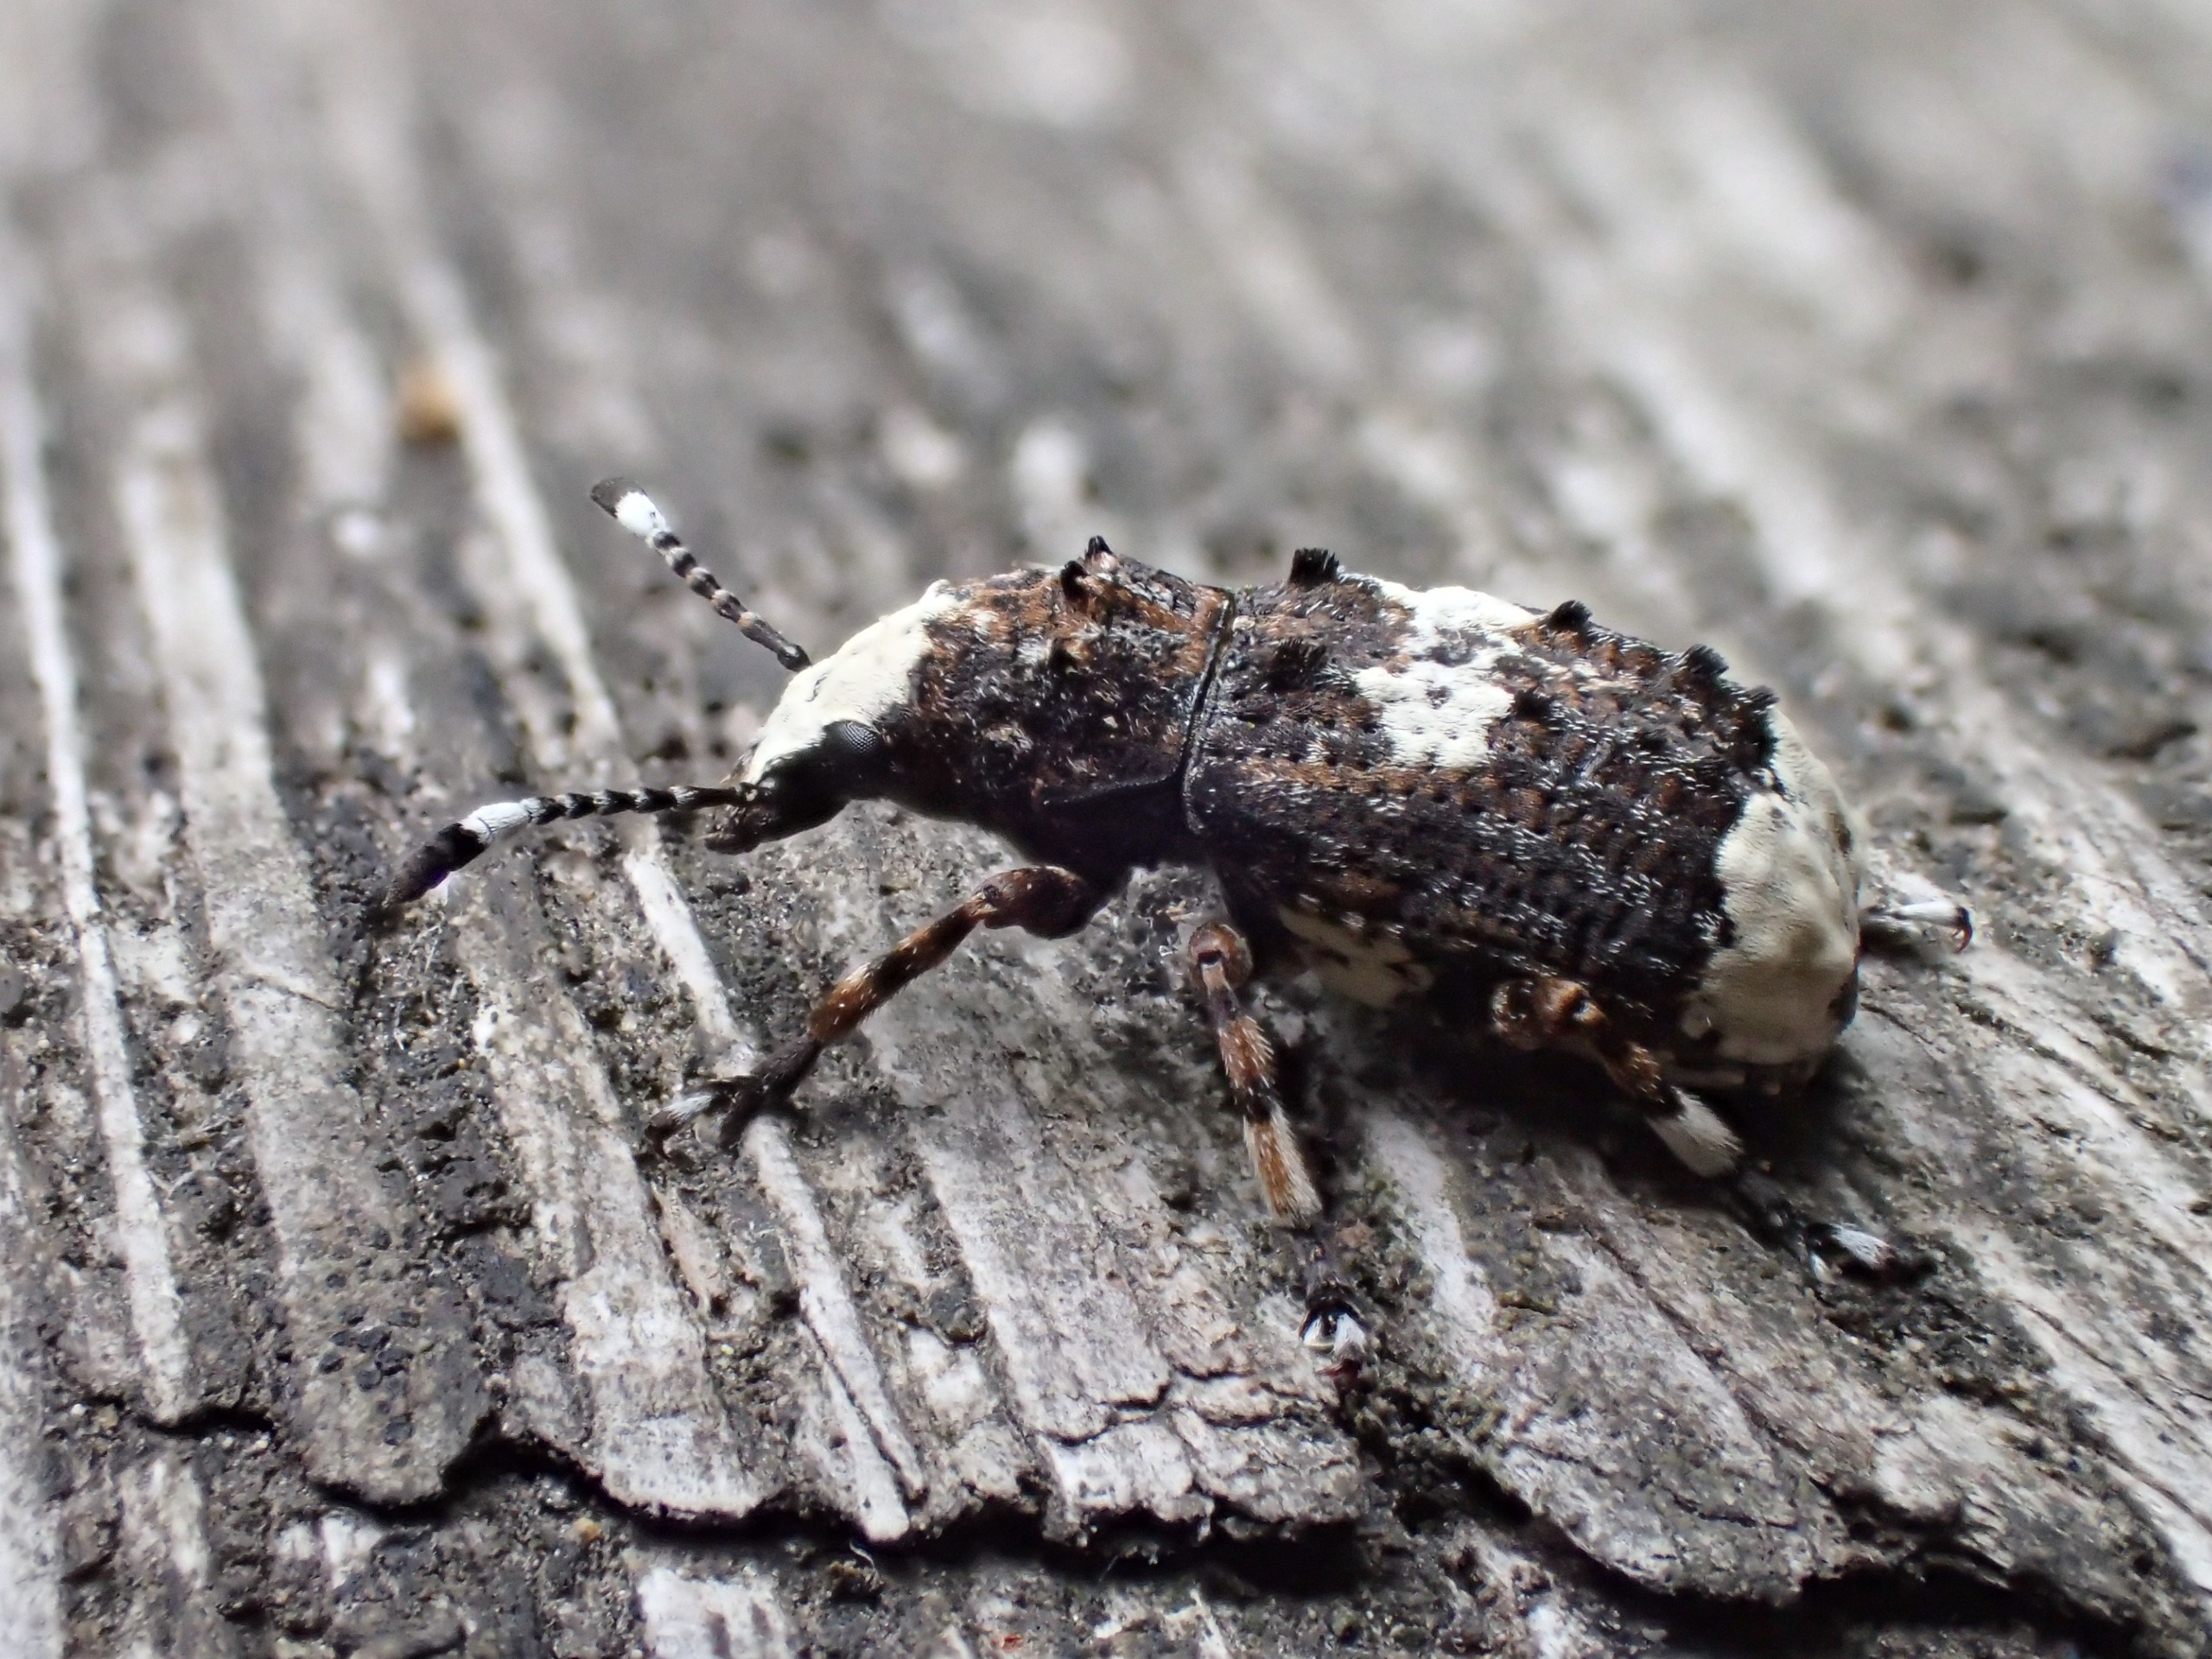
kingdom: Animalia
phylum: Arthropoda
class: Insecta
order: Coleoptera
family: Anthribidae
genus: Platystomos
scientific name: Platystomos albinus
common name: Hvidhovedet bredsnudebille
